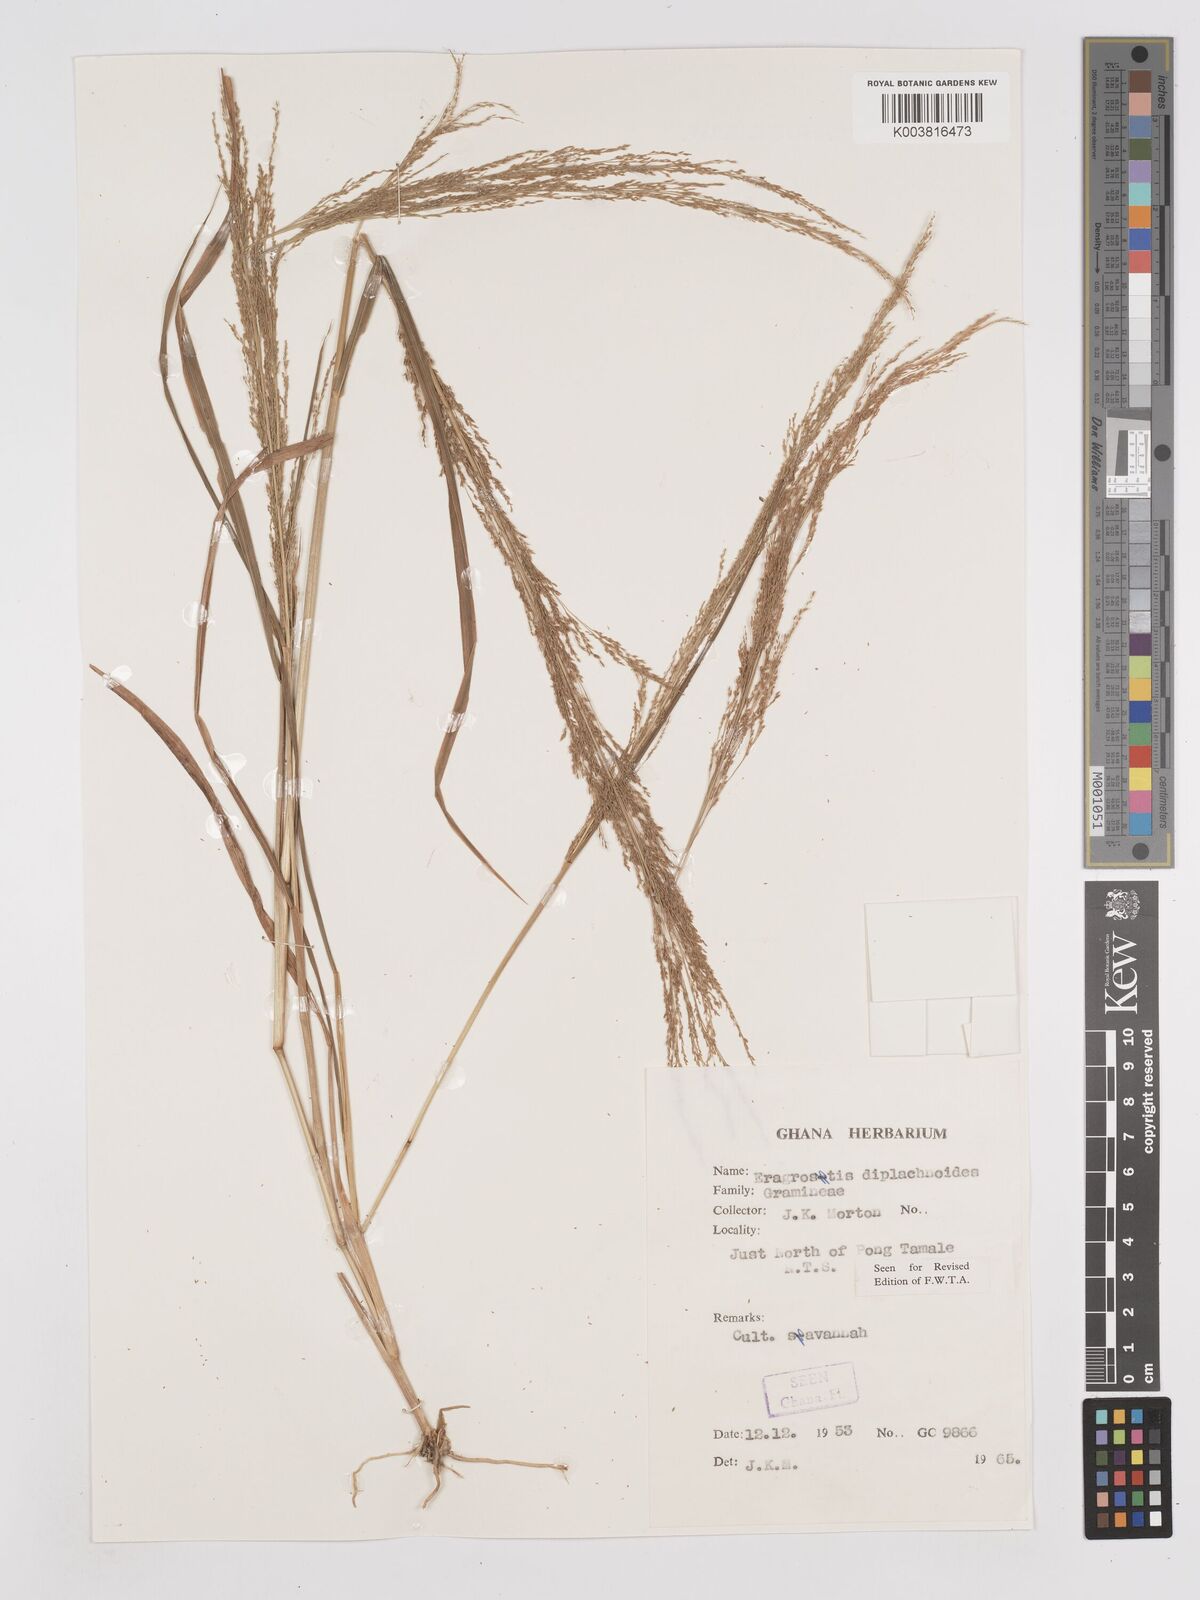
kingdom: Plantae
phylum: Tracheophyta
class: Liliopsida
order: Poales
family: Poaceae
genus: Eragrostis
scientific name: Eragrostis japonica
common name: Pond lovegrass
